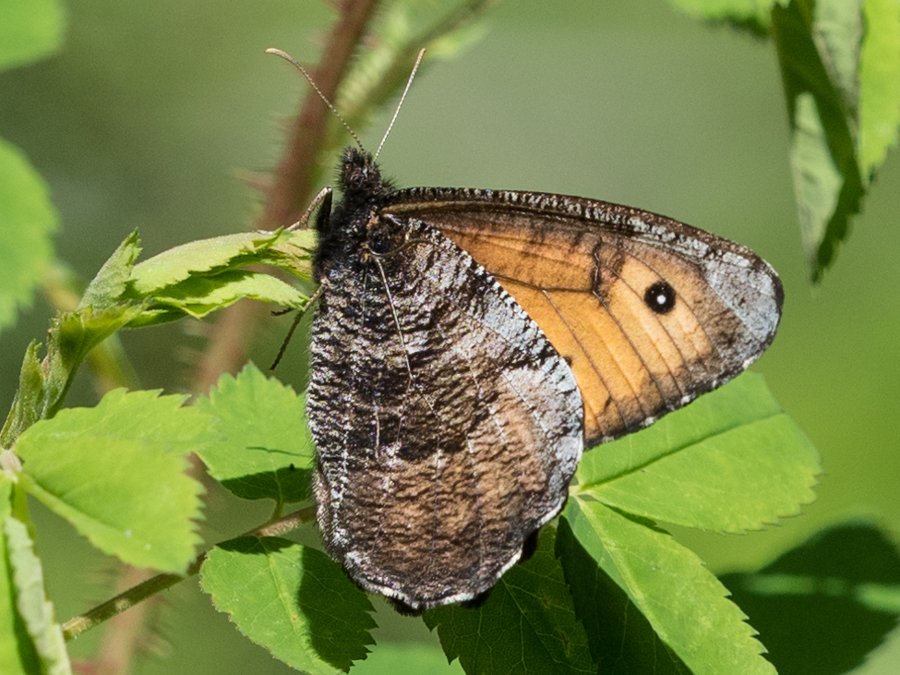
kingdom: Animalia
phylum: Arthropoda
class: Insecta
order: Lepidoptera
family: Nymphalidae
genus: Oeneis
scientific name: Oeneis macounii
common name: Macoun's Arctic
